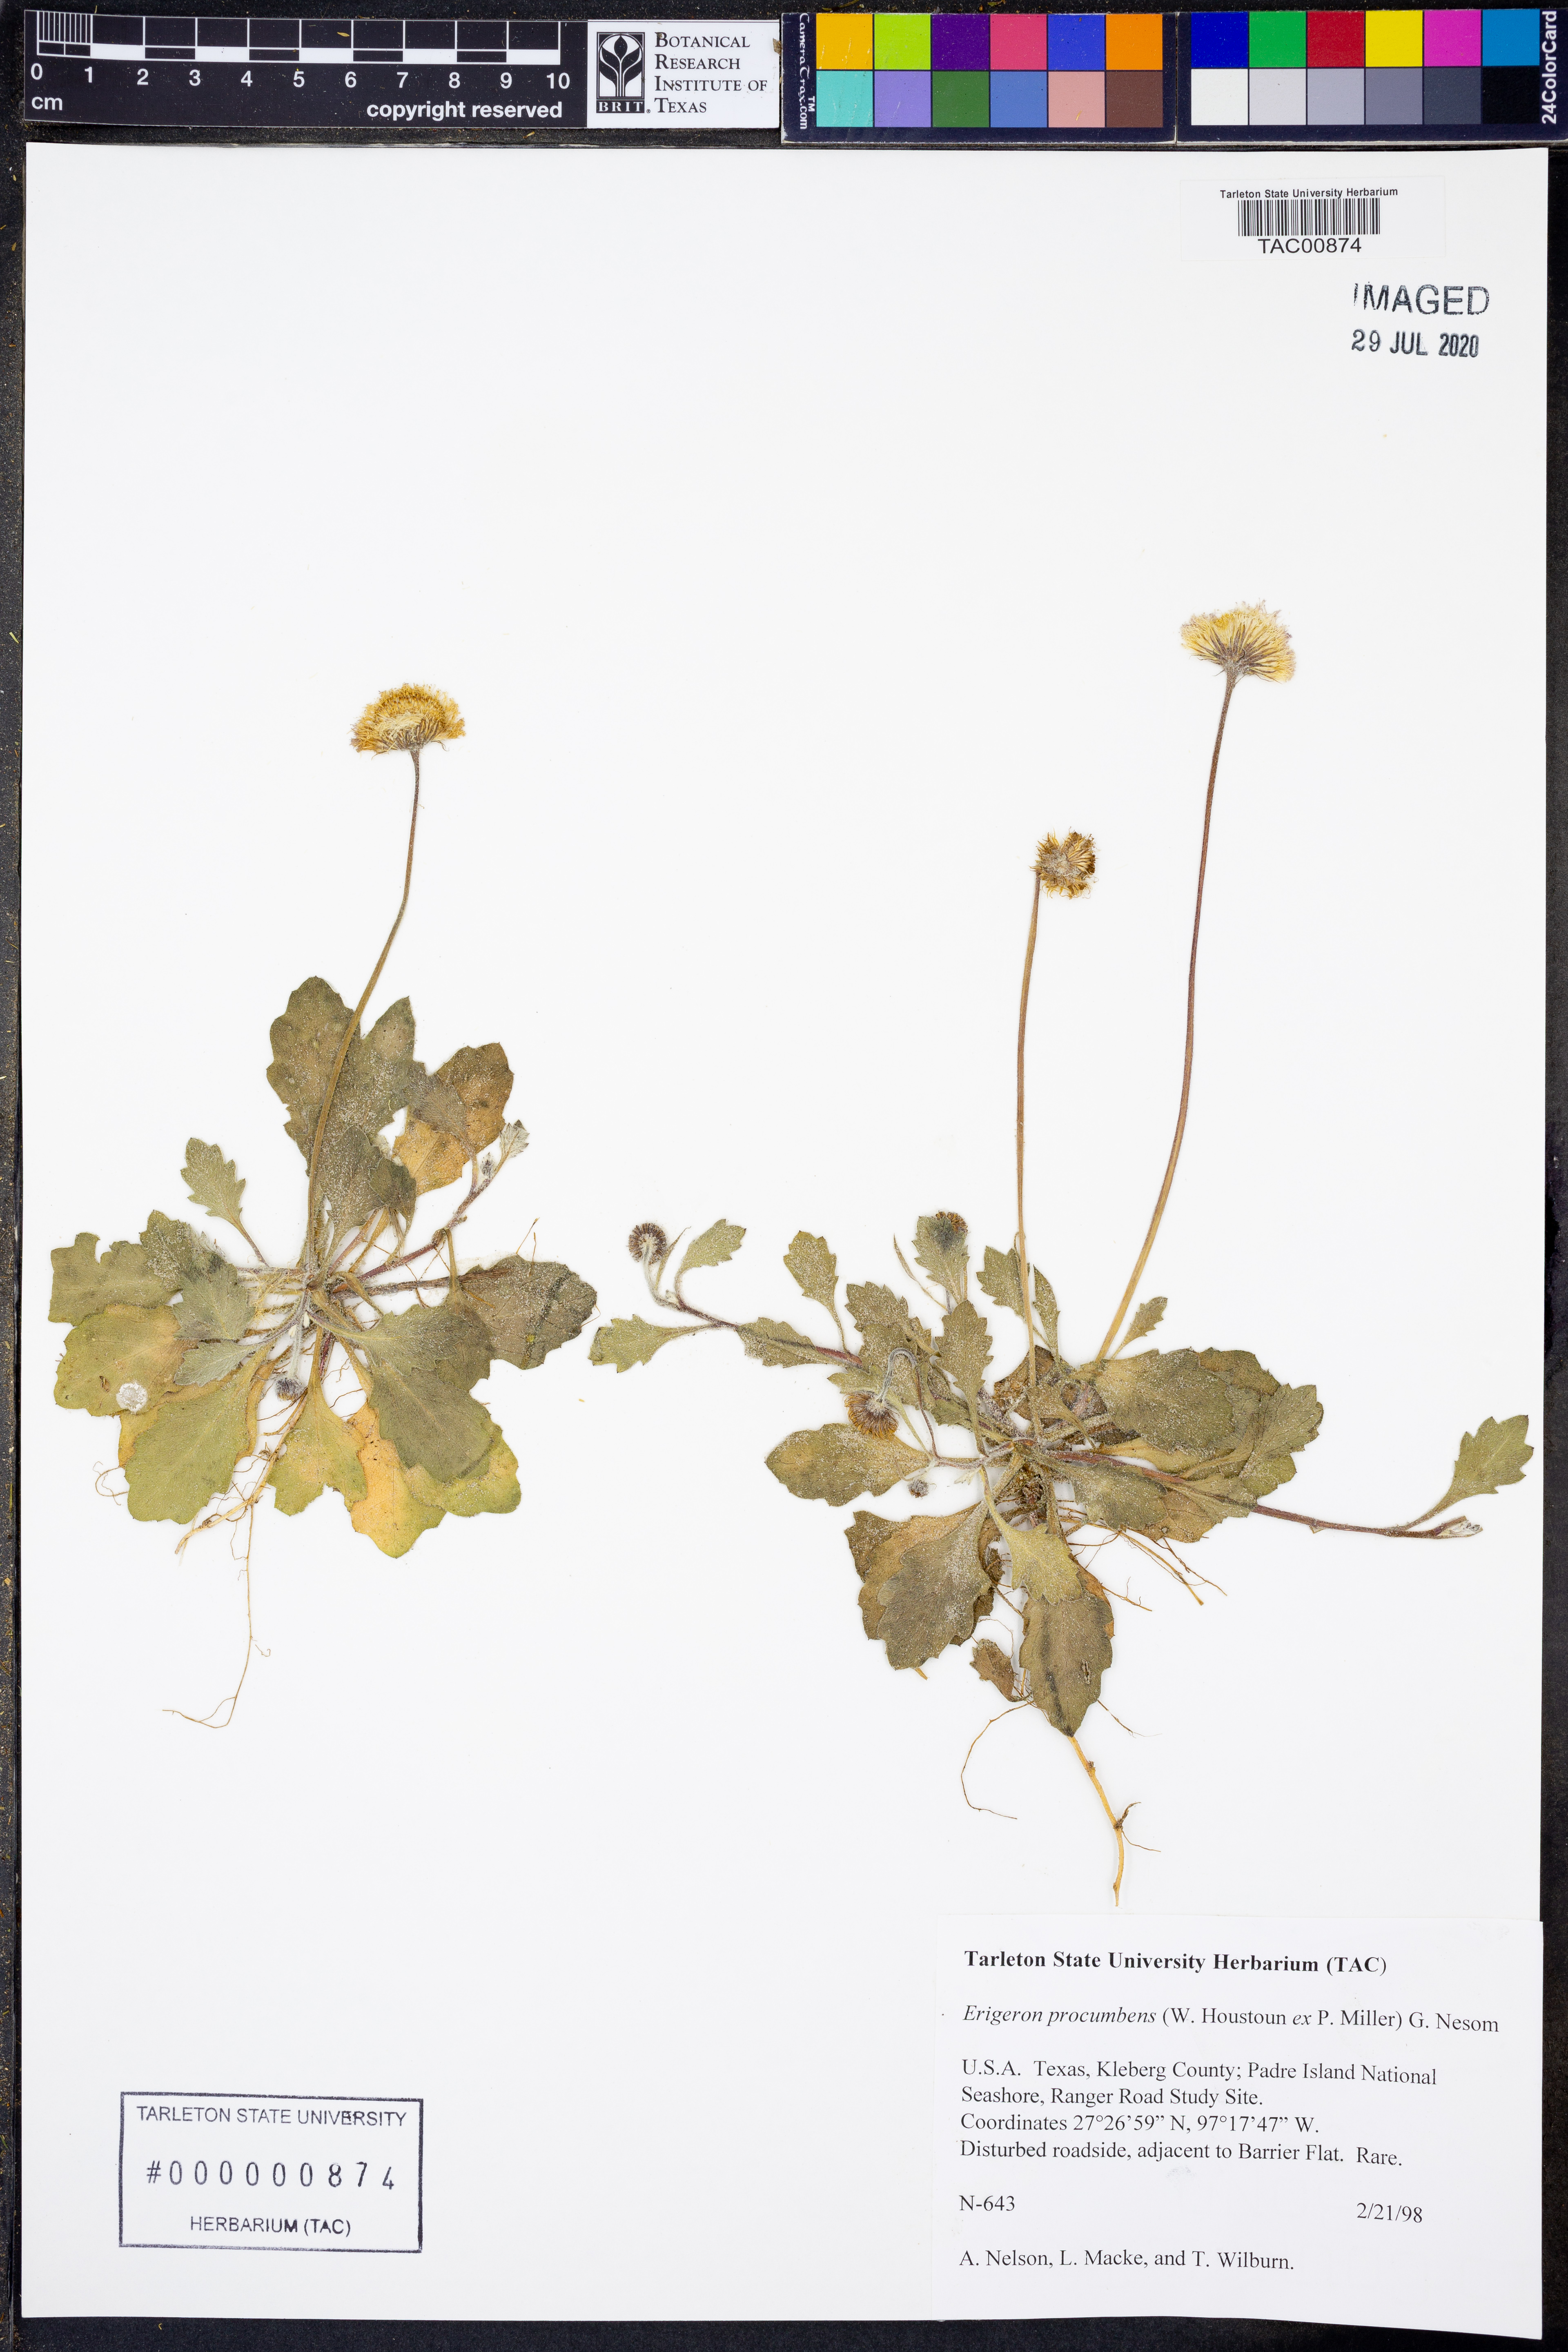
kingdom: Plantae
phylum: Tracheophyta
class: Magnoliopsida
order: Asterales
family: Asteraceae
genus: Erigeron
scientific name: Erigeron procumbens
